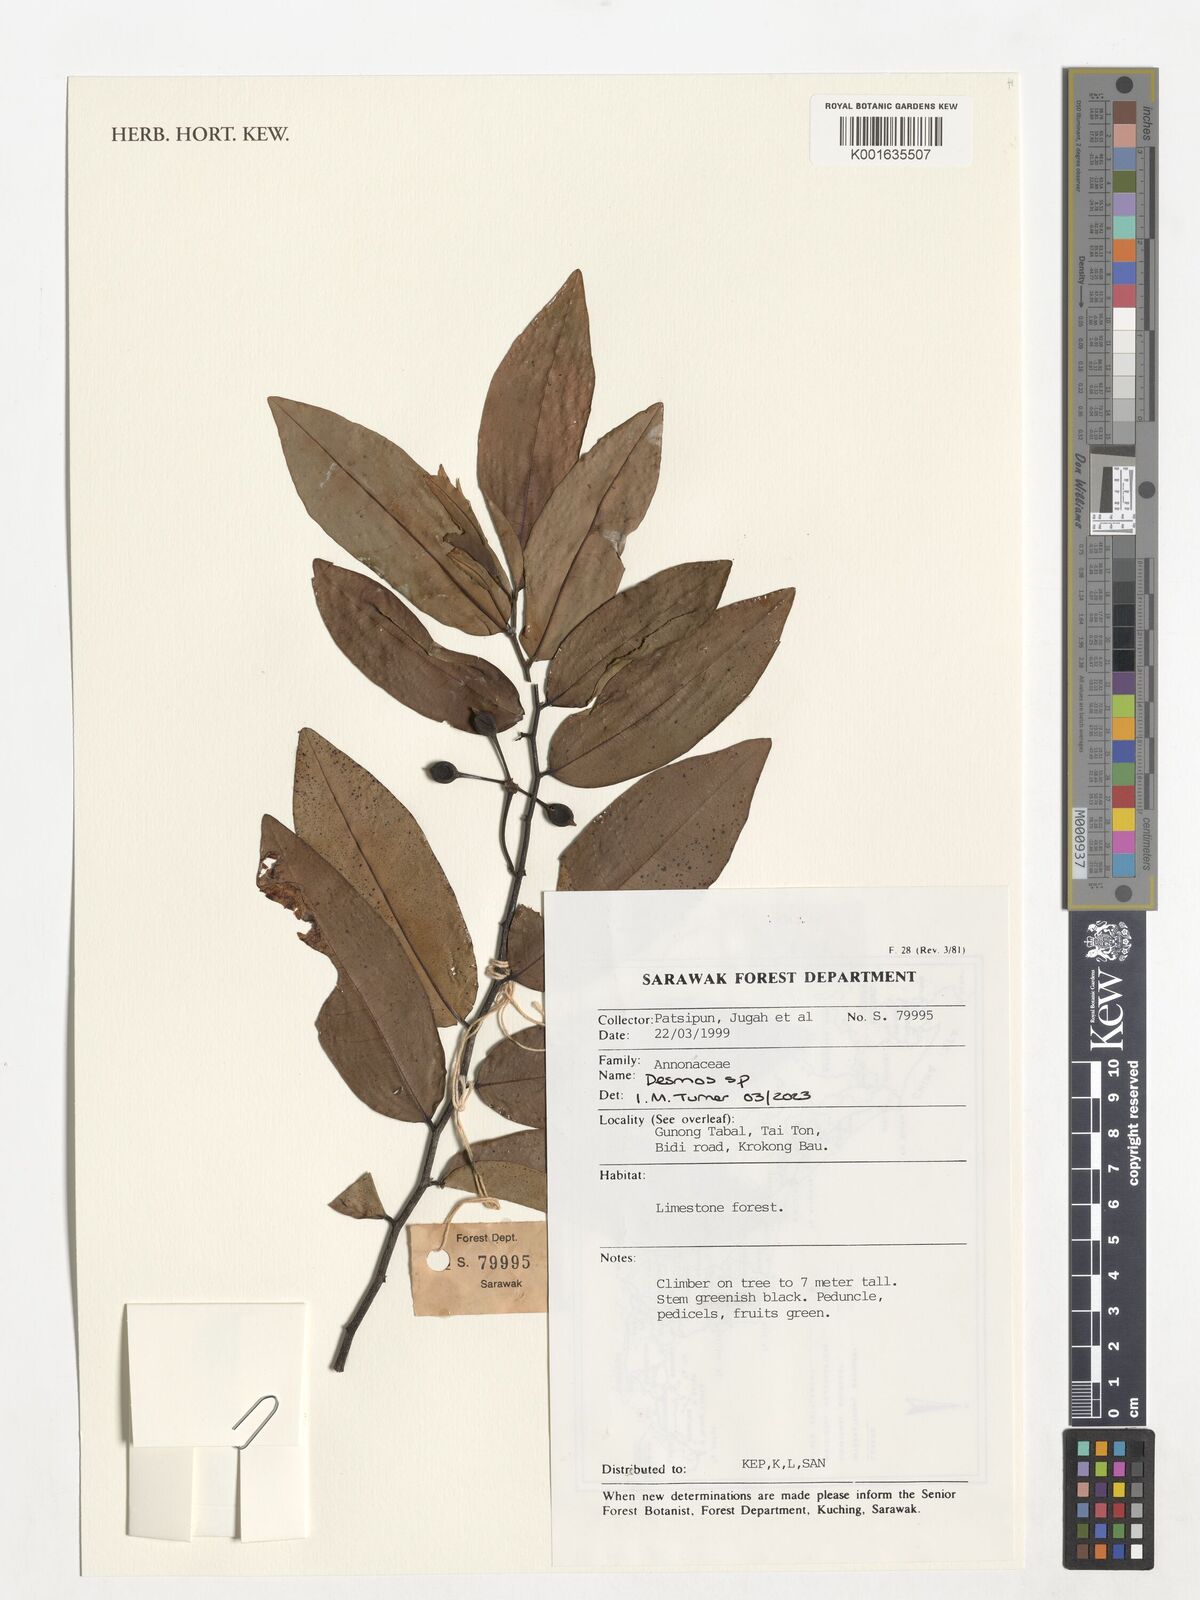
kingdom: Plantae
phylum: Tracheophyta
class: Magnoliopsida
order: Magnoliales
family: Annonaceae
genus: Desmos
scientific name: Desmos
